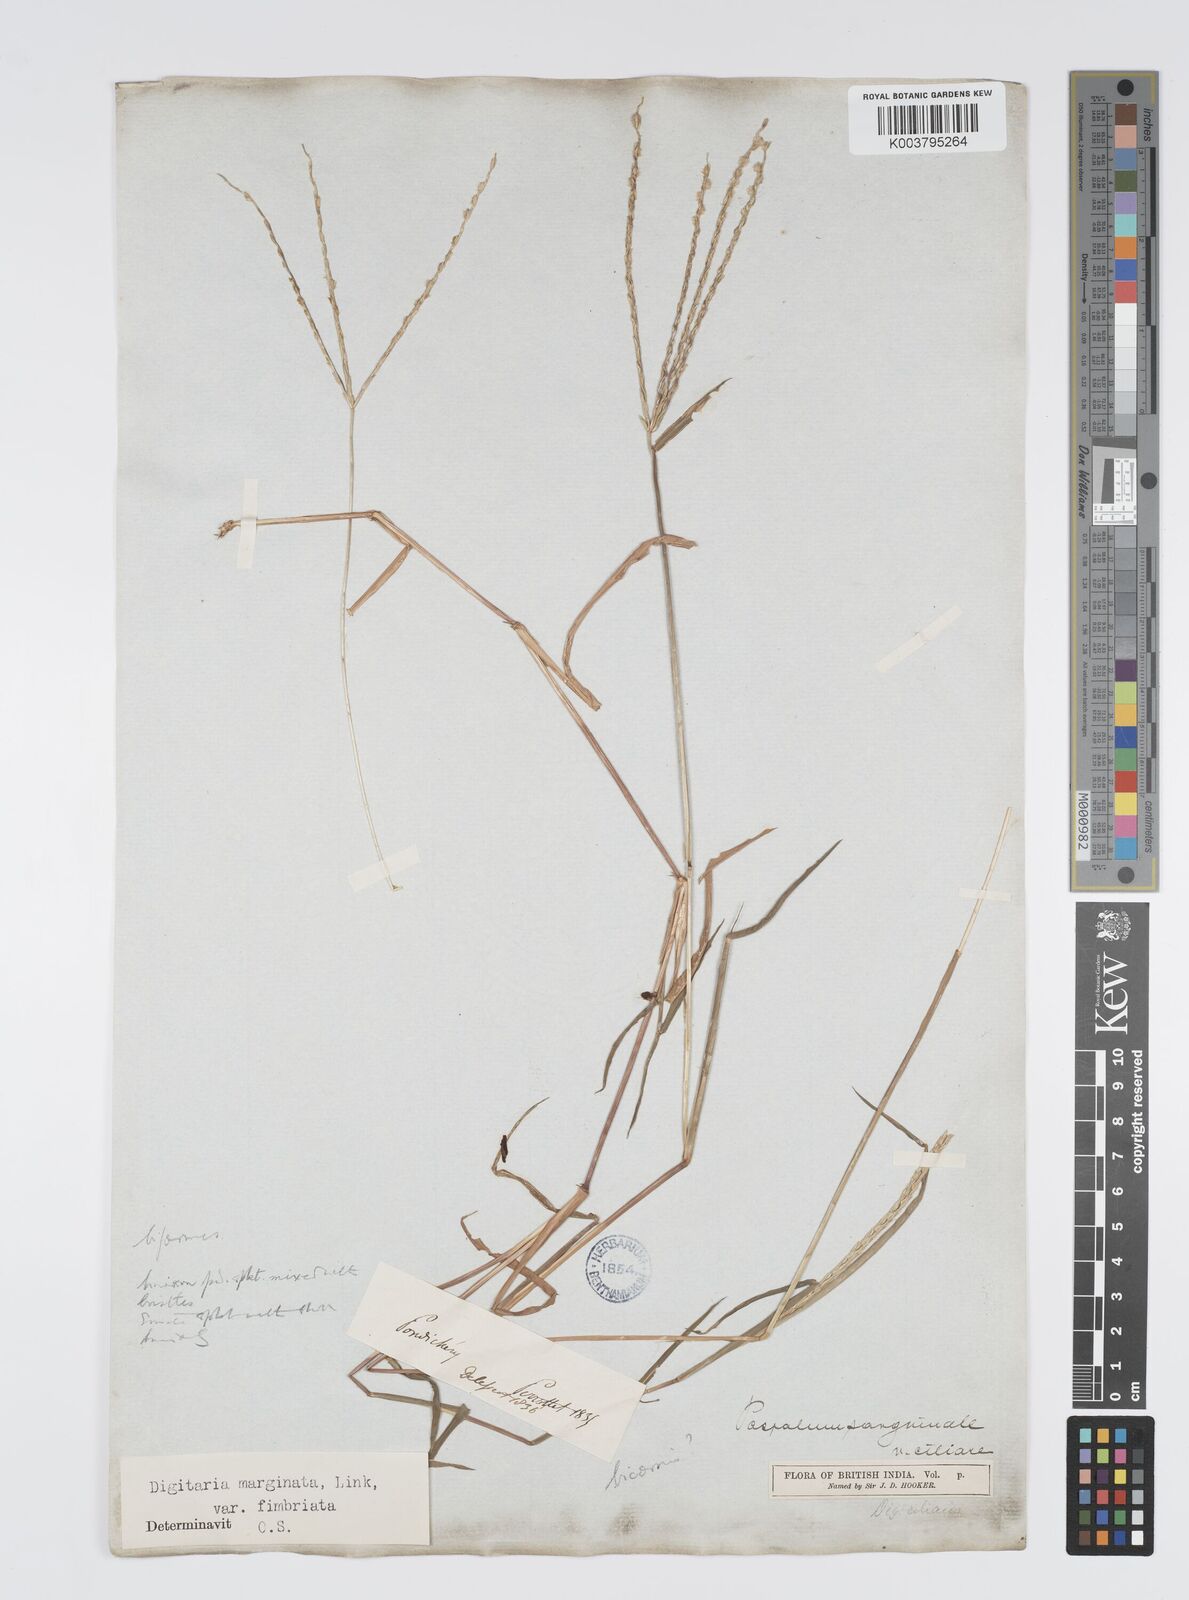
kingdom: Plantae
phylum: Tracheophyta
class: Liliopsida
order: Poales
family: Poaceae
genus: Digitaria
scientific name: Digitaria ciliaris
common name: Tropical finger-grass
